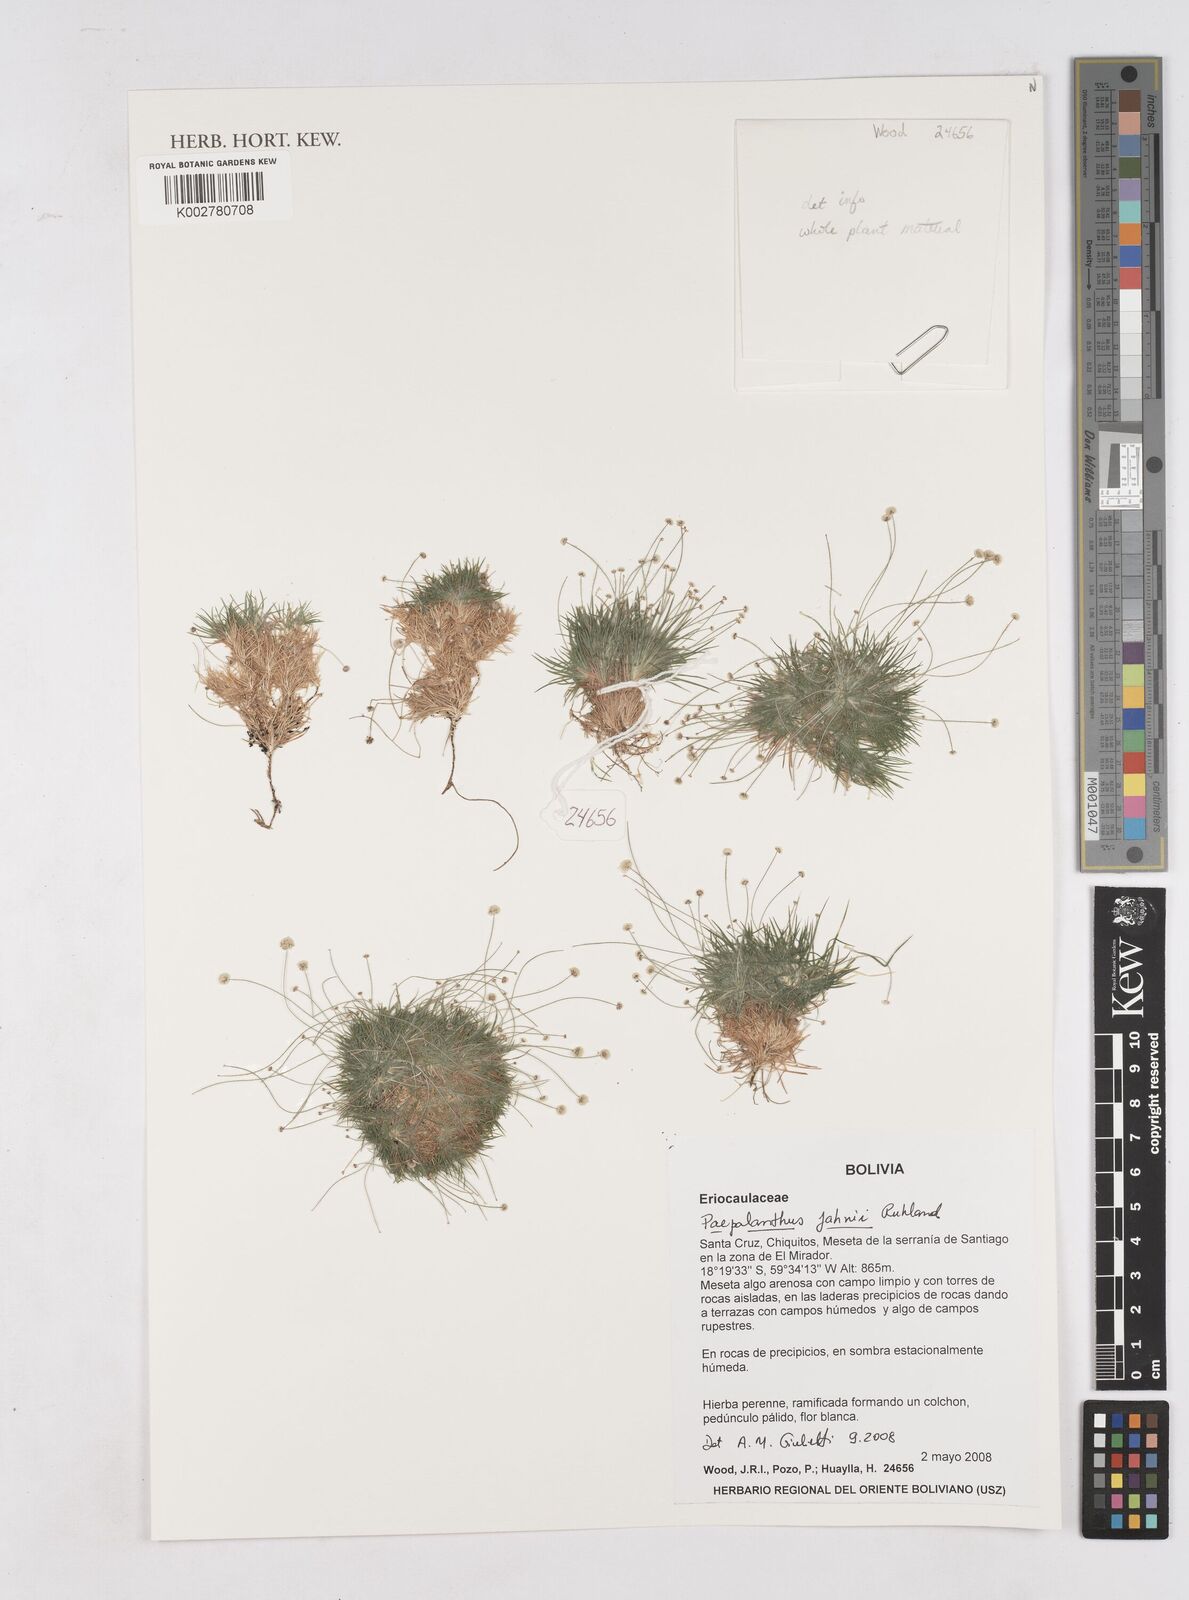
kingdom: Plantae
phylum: Tracheophyta
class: Liliopsida
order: Poales
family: Eriocaulaceae
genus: Paepalanthus
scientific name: Paepalanthus supinus
